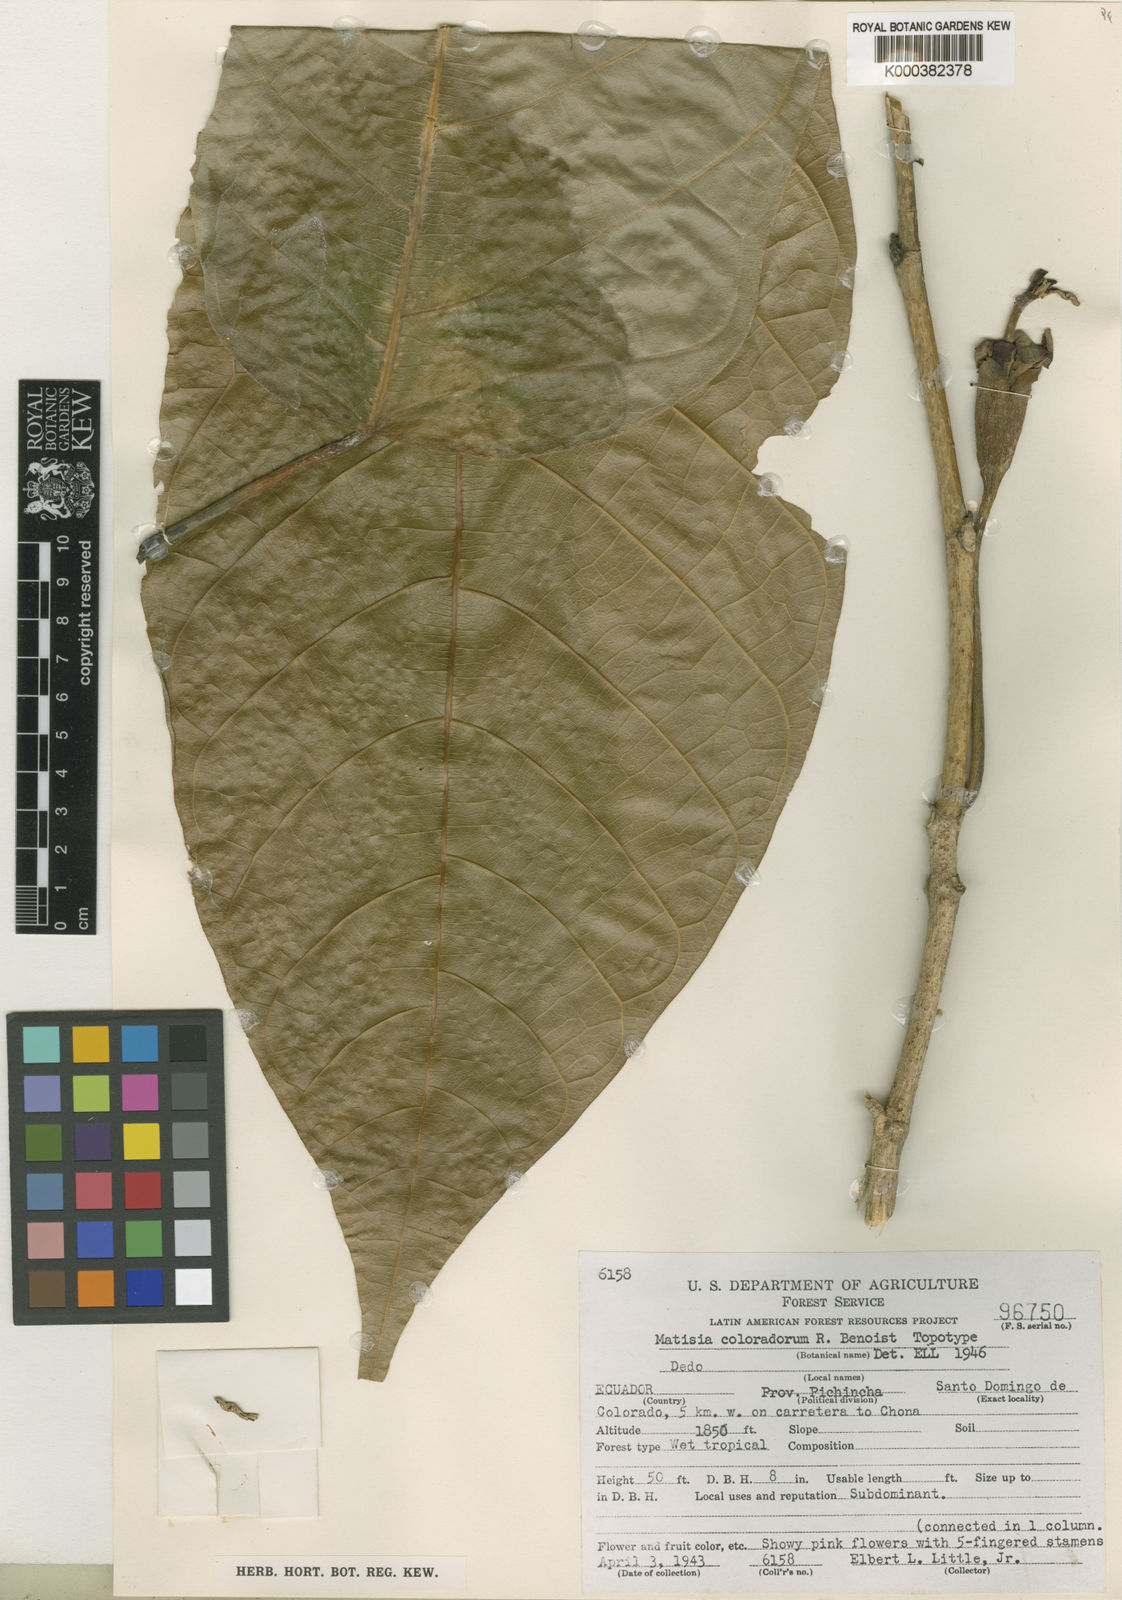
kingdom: Plantae
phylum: Tracheophyta
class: Magnoliopsida
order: Malvales
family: Malvaceae
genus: Matisia
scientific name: Matisia coloradorum
